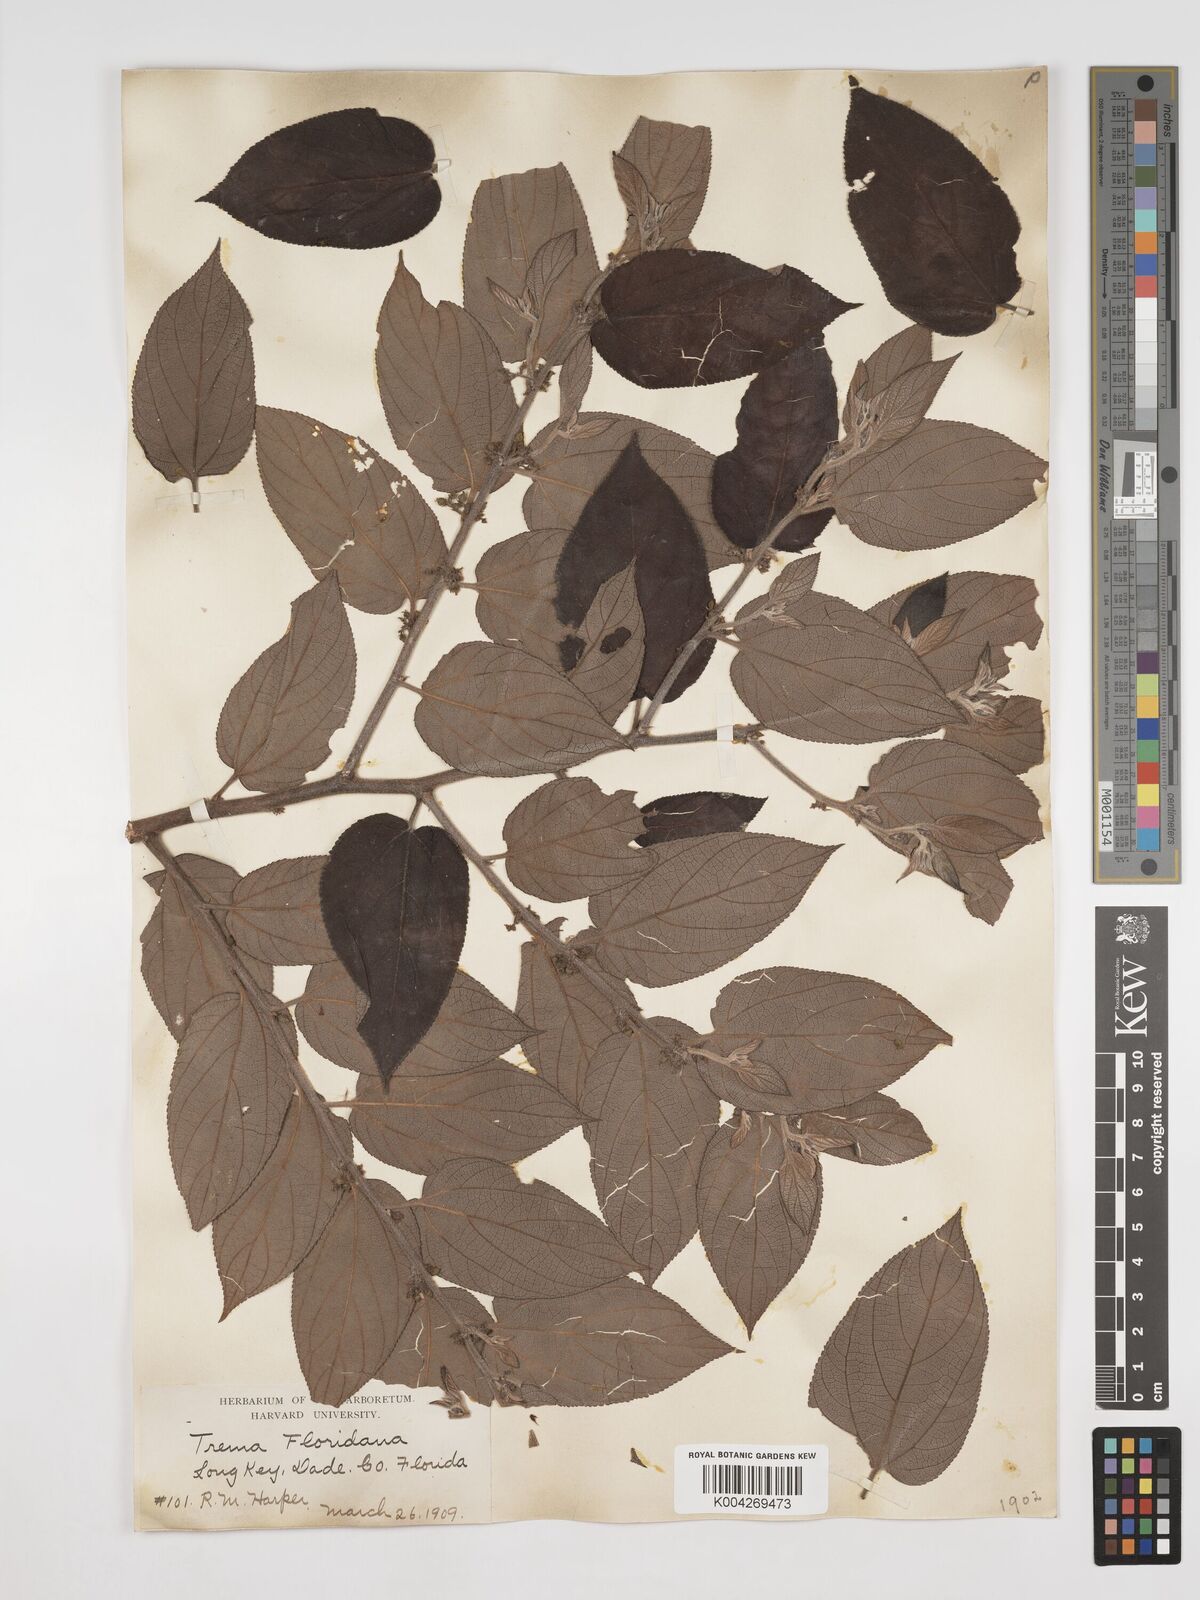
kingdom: Plantae
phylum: Tracheophyta
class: Magnoliopsida
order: Rosales
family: Cannabaceae
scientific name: Cannabaceae
